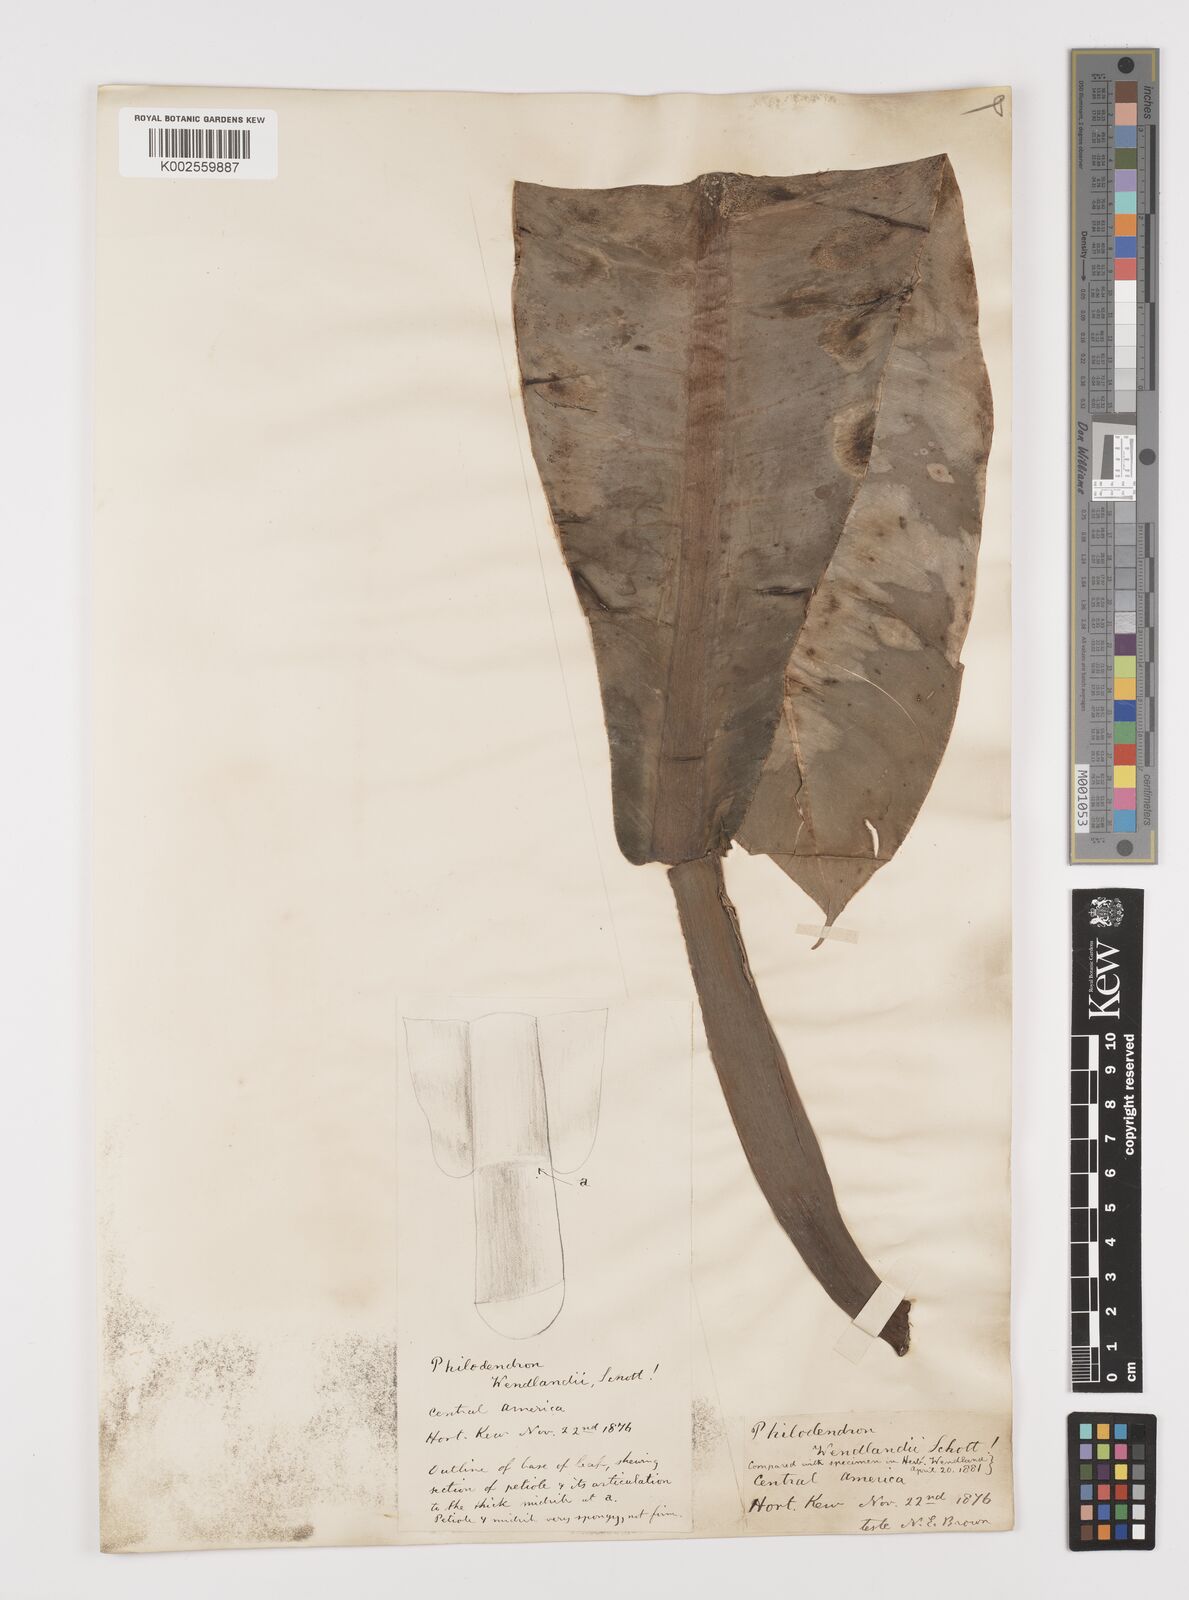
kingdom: Plantae
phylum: Tracheophyta
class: Liliopsida
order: Alismatales
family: Araceae
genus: Philodendron
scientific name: Philodendron wendlandii
